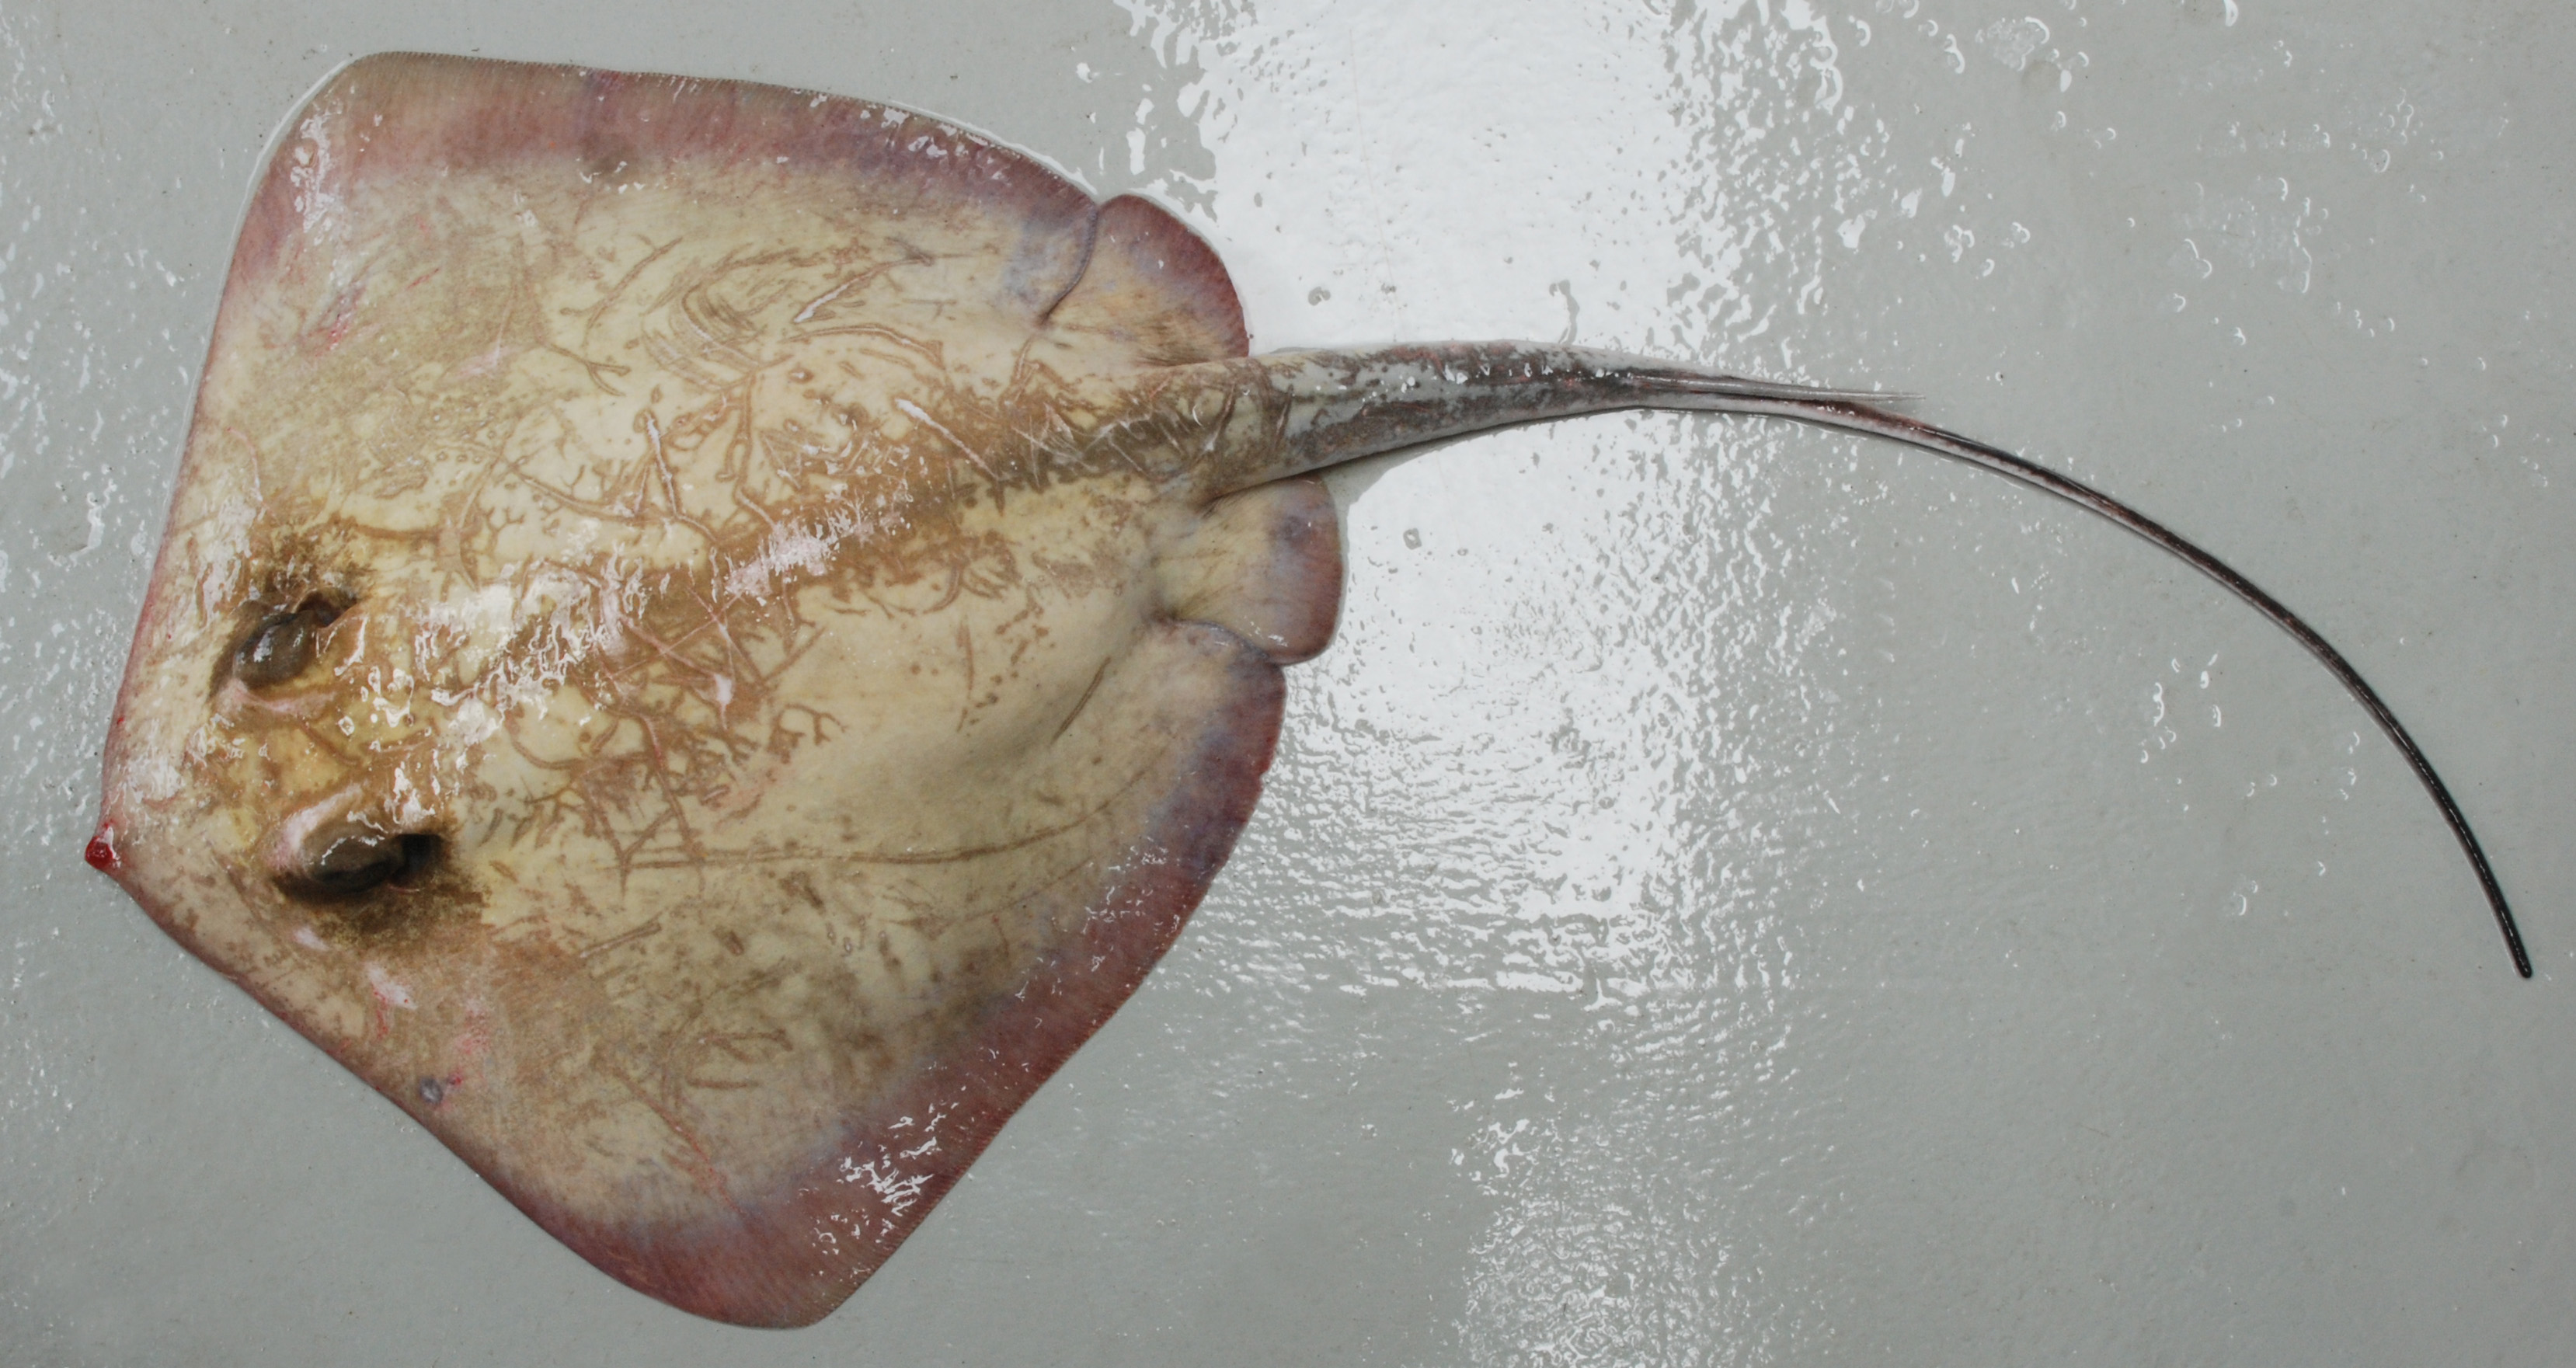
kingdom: Animalia
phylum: Chordata
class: Elasmobranchii
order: Myliobatiformes
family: Dasyatidae
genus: Dasyatis
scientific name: Dasyatis
